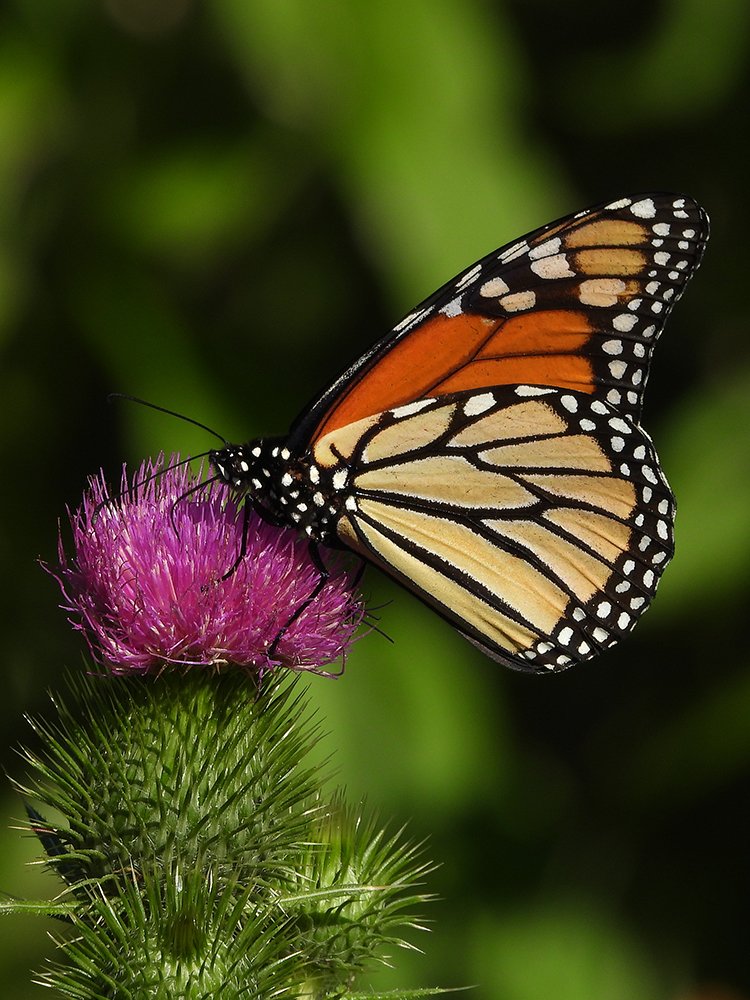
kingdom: Animalia
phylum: Arthropoda
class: Insecta
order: Lepidoptera
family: Nymphalidae
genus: Danaus
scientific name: Danaus plexippus
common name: Monarch
